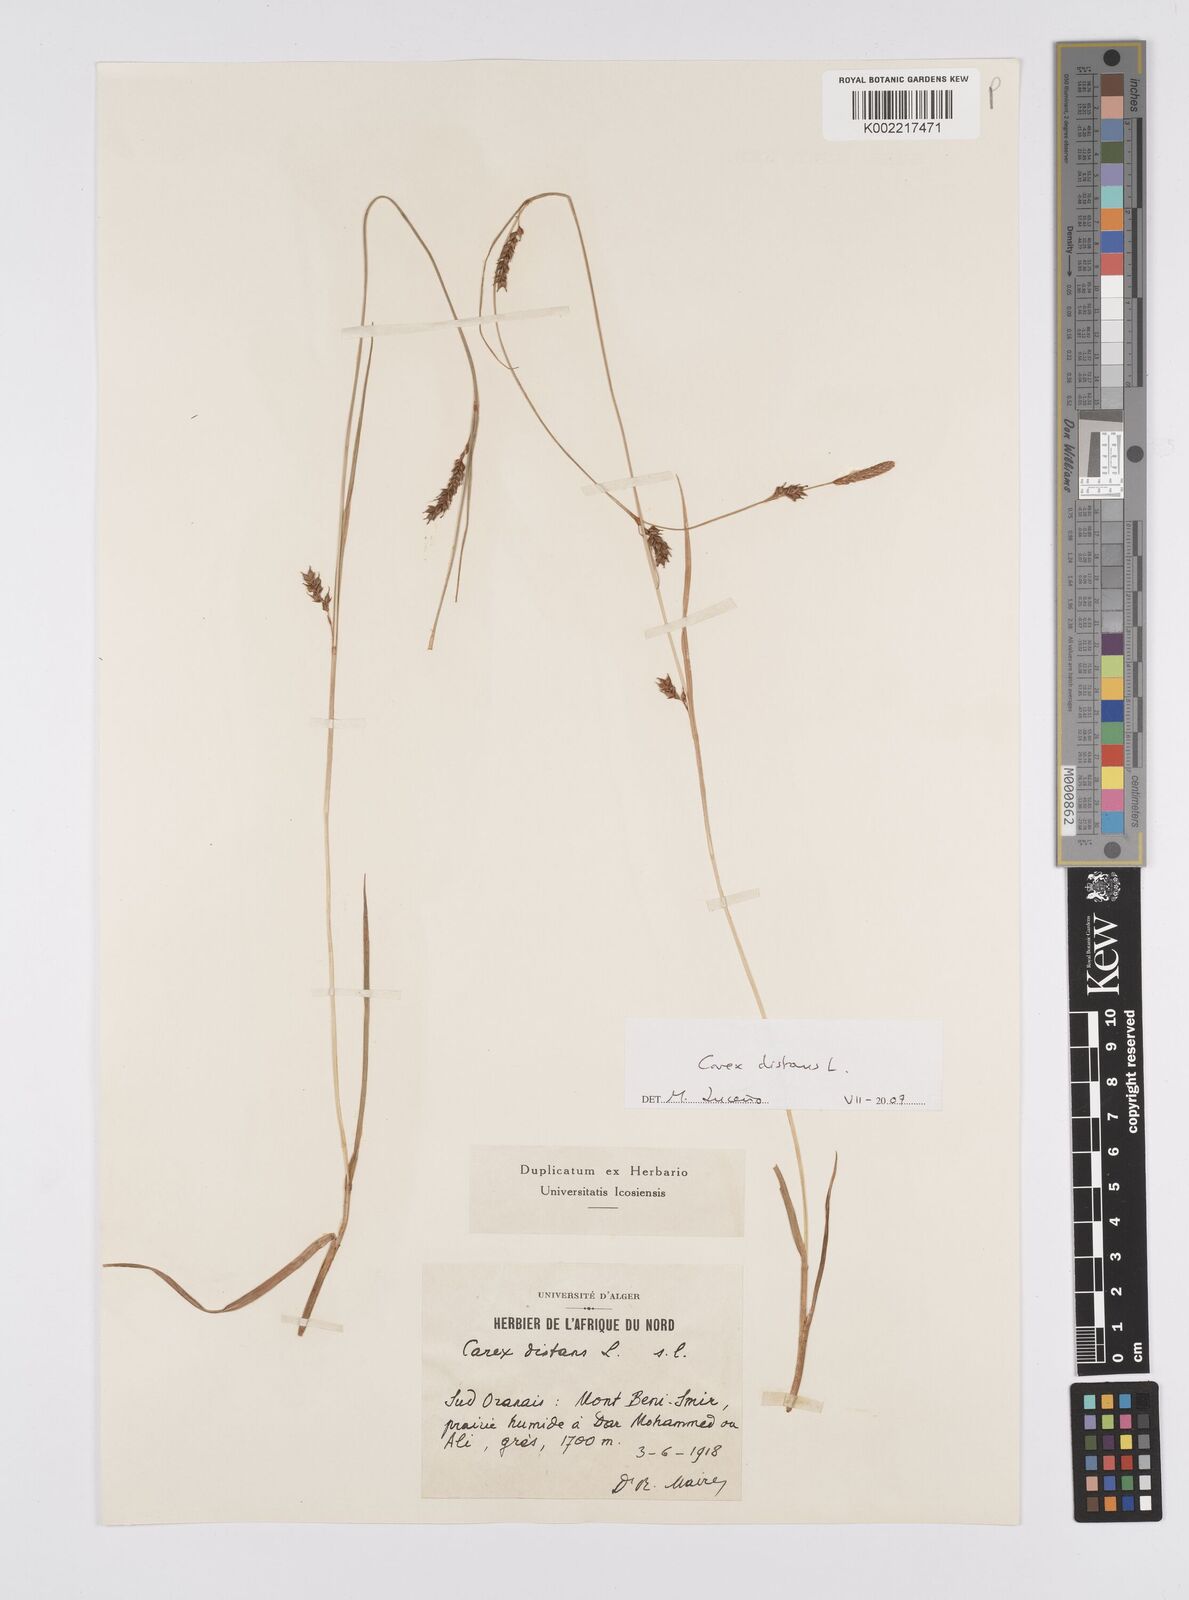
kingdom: Plantae
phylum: Tracheophyta
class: Liliopsida
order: Poales
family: Cyperaceae
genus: Carex
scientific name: Carex distans
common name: Distant sedge
